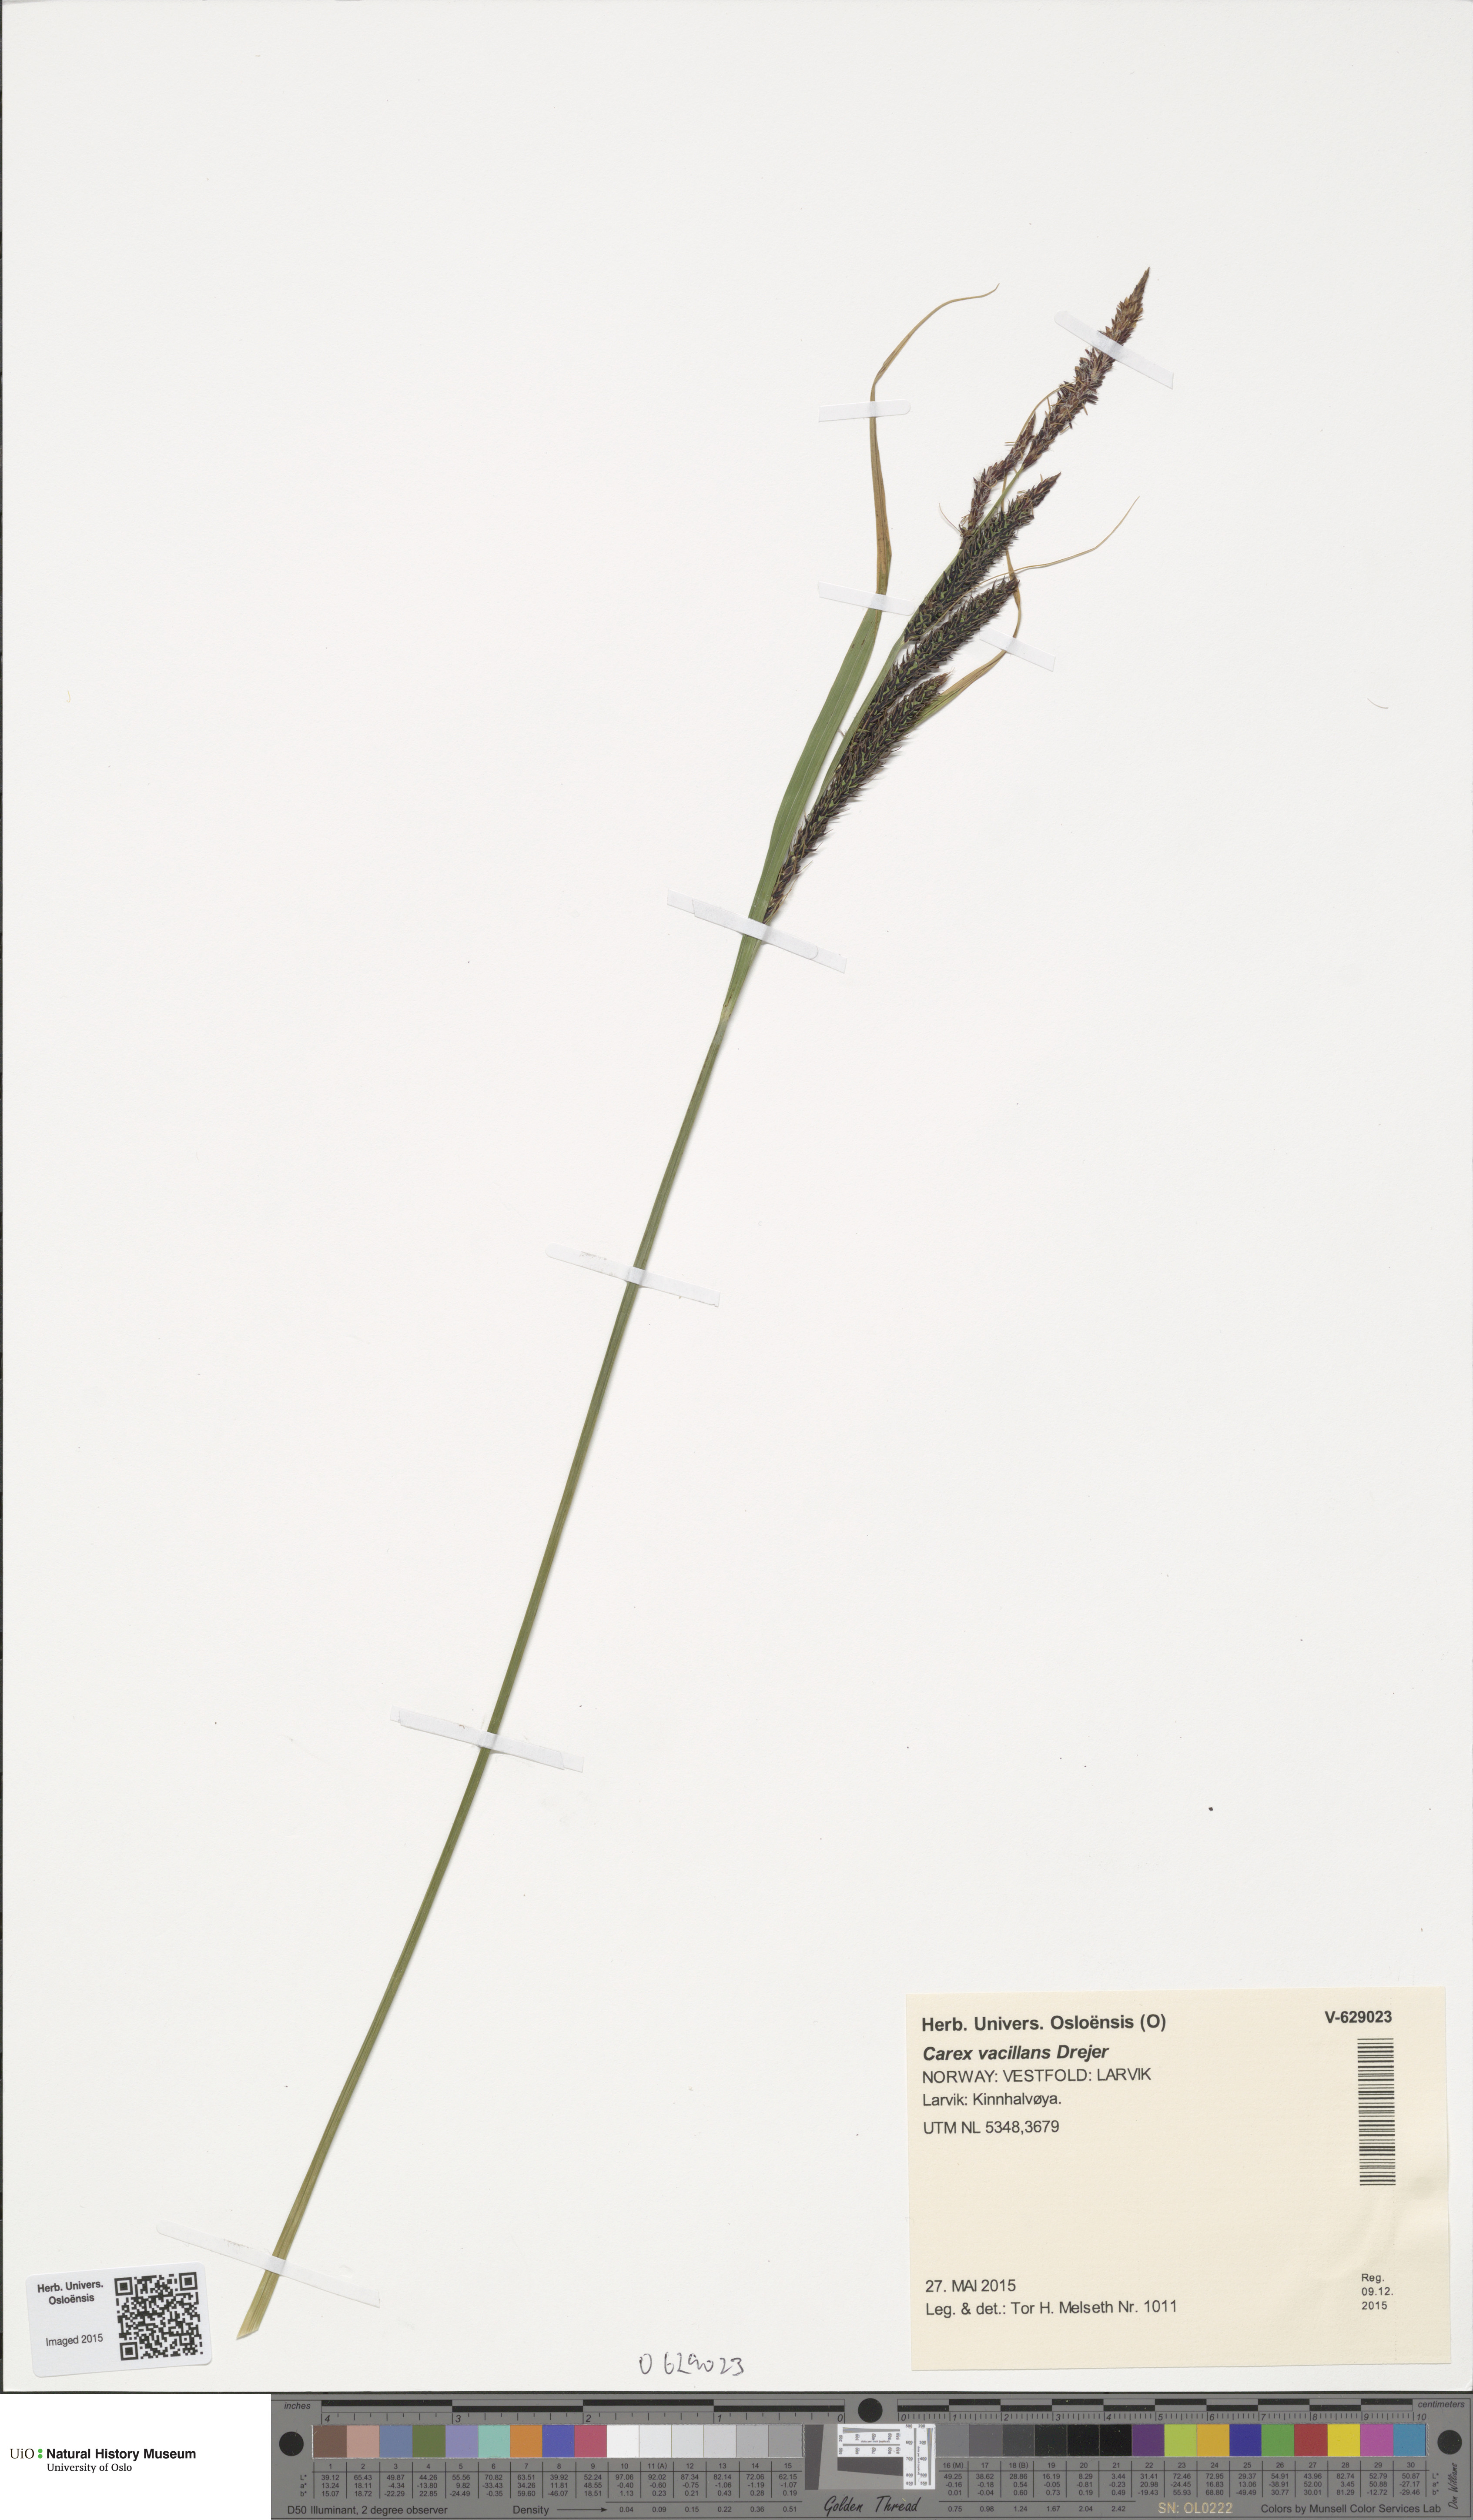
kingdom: Plantae
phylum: Tracheophyta
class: Liliopsida
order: Poales
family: Cyperaceae
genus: Carex
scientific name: Carex vacillans
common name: Sedge
